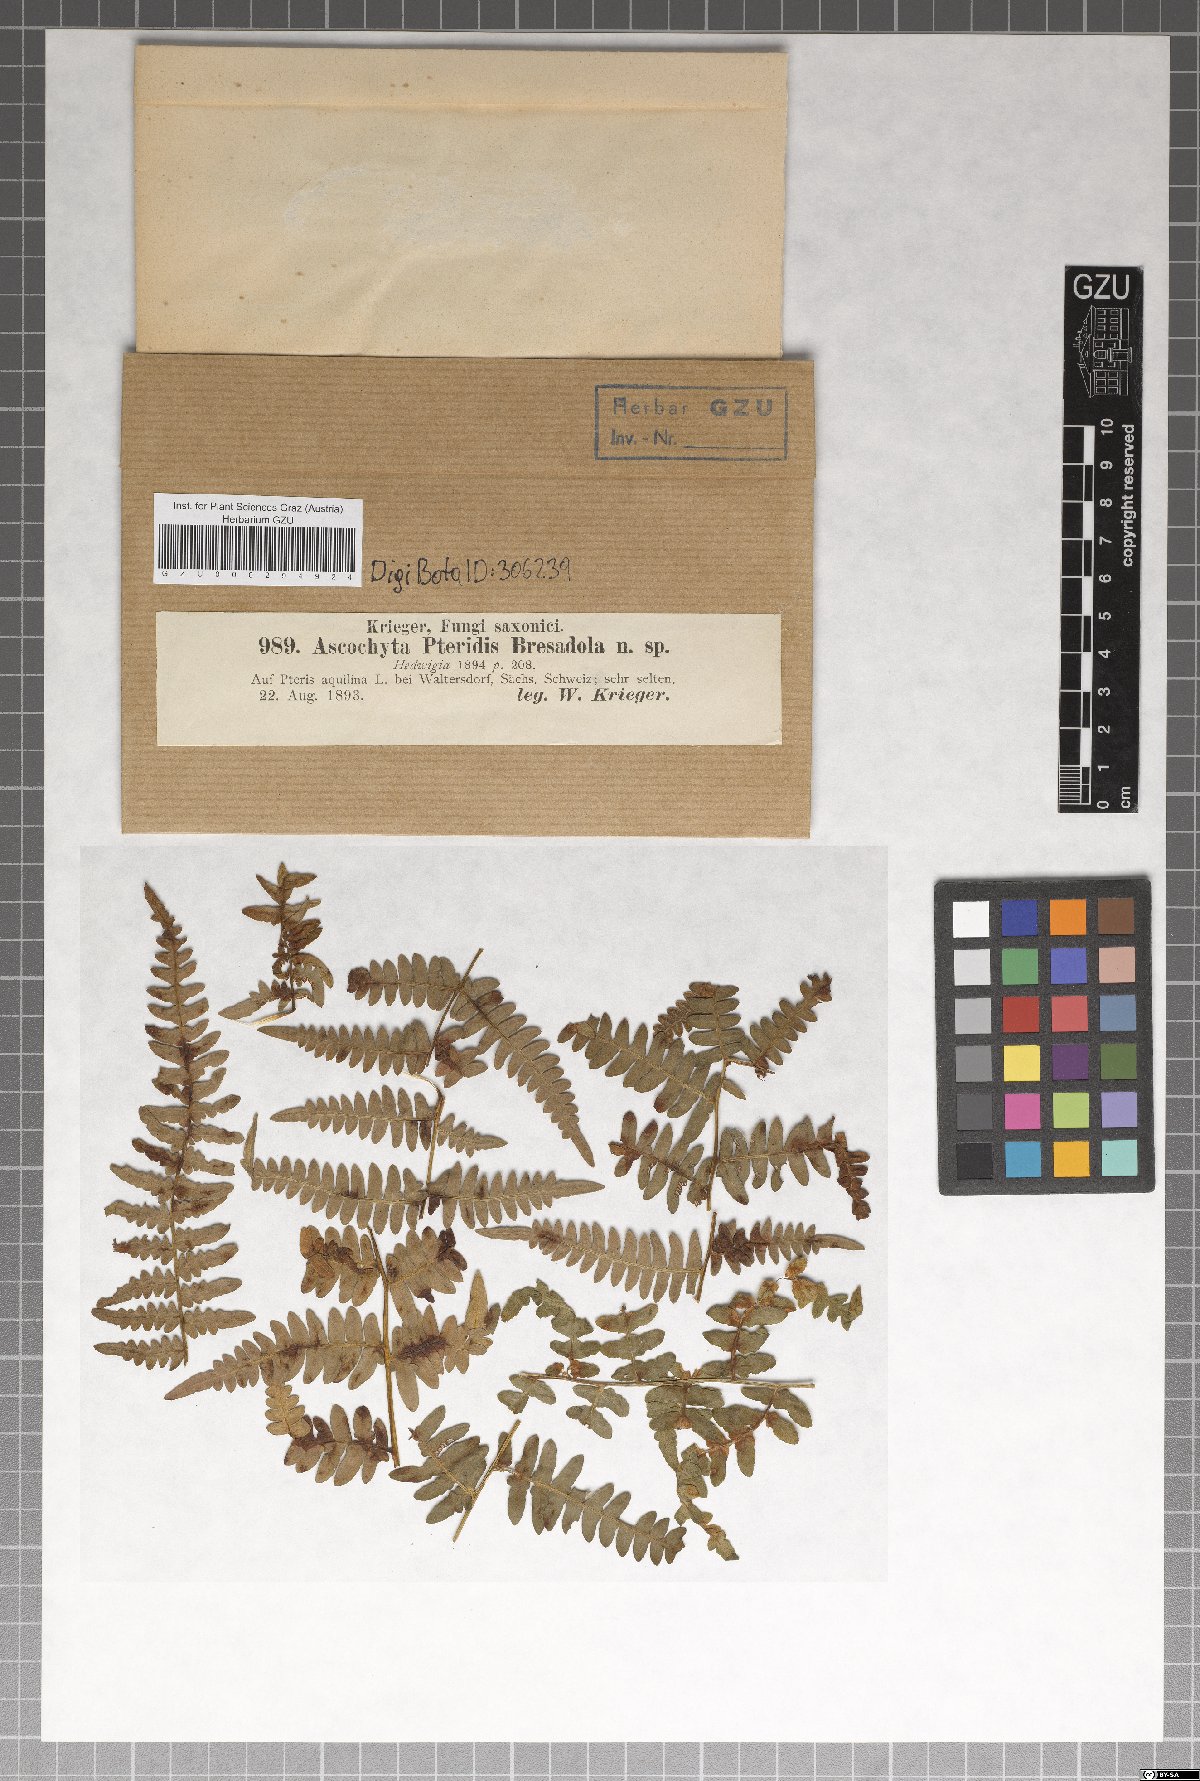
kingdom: Fungi
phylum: Ascomycota
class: Dothideomycetes
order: Pleosporales
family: Didymellaceae
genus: Ascochyta
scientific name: Ascochyta pteridis
